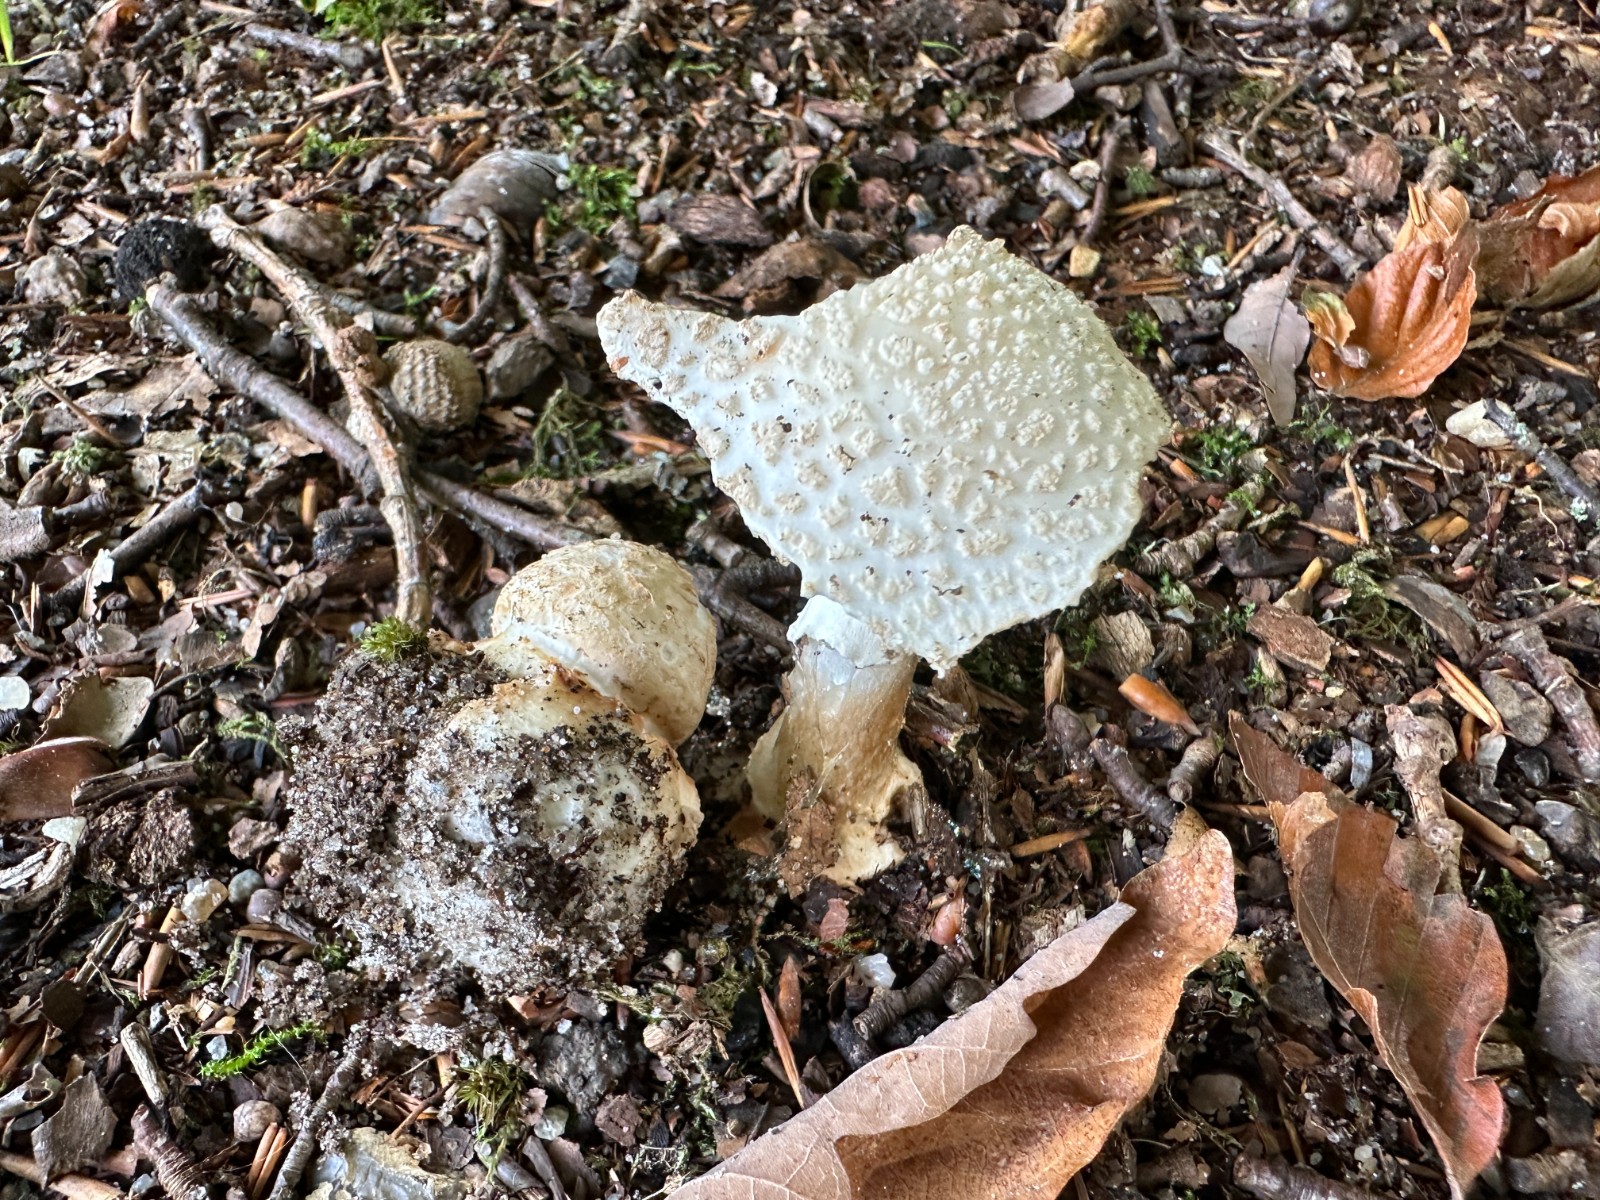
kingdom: Fungi
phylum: Basidiomycota
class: Agaricomycetes
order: Agaricales
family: Amanitaceae
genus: Amanita
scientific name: Amanita
